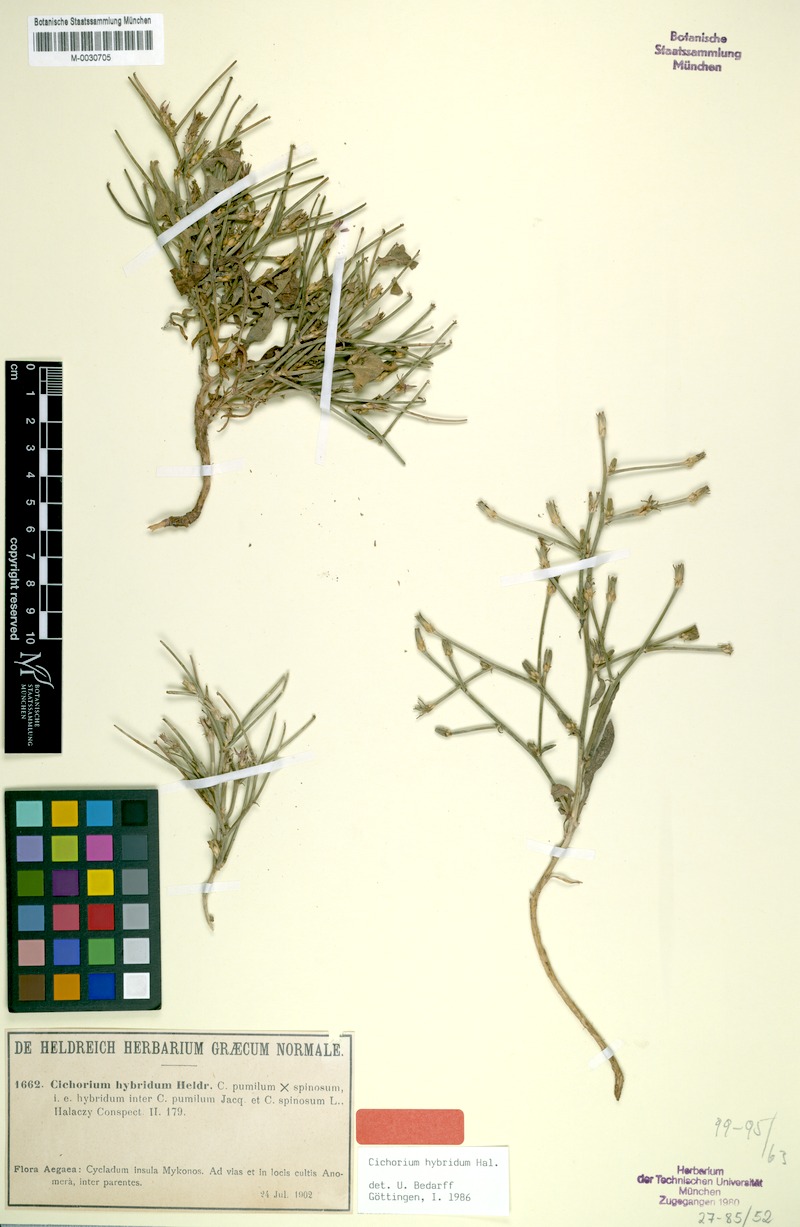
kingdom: Plantae
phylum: Tracheophyta
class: Magnoliopsida
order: Asterales
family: Asteraceae
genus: Cichorium
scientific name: Cichorium spinosum
